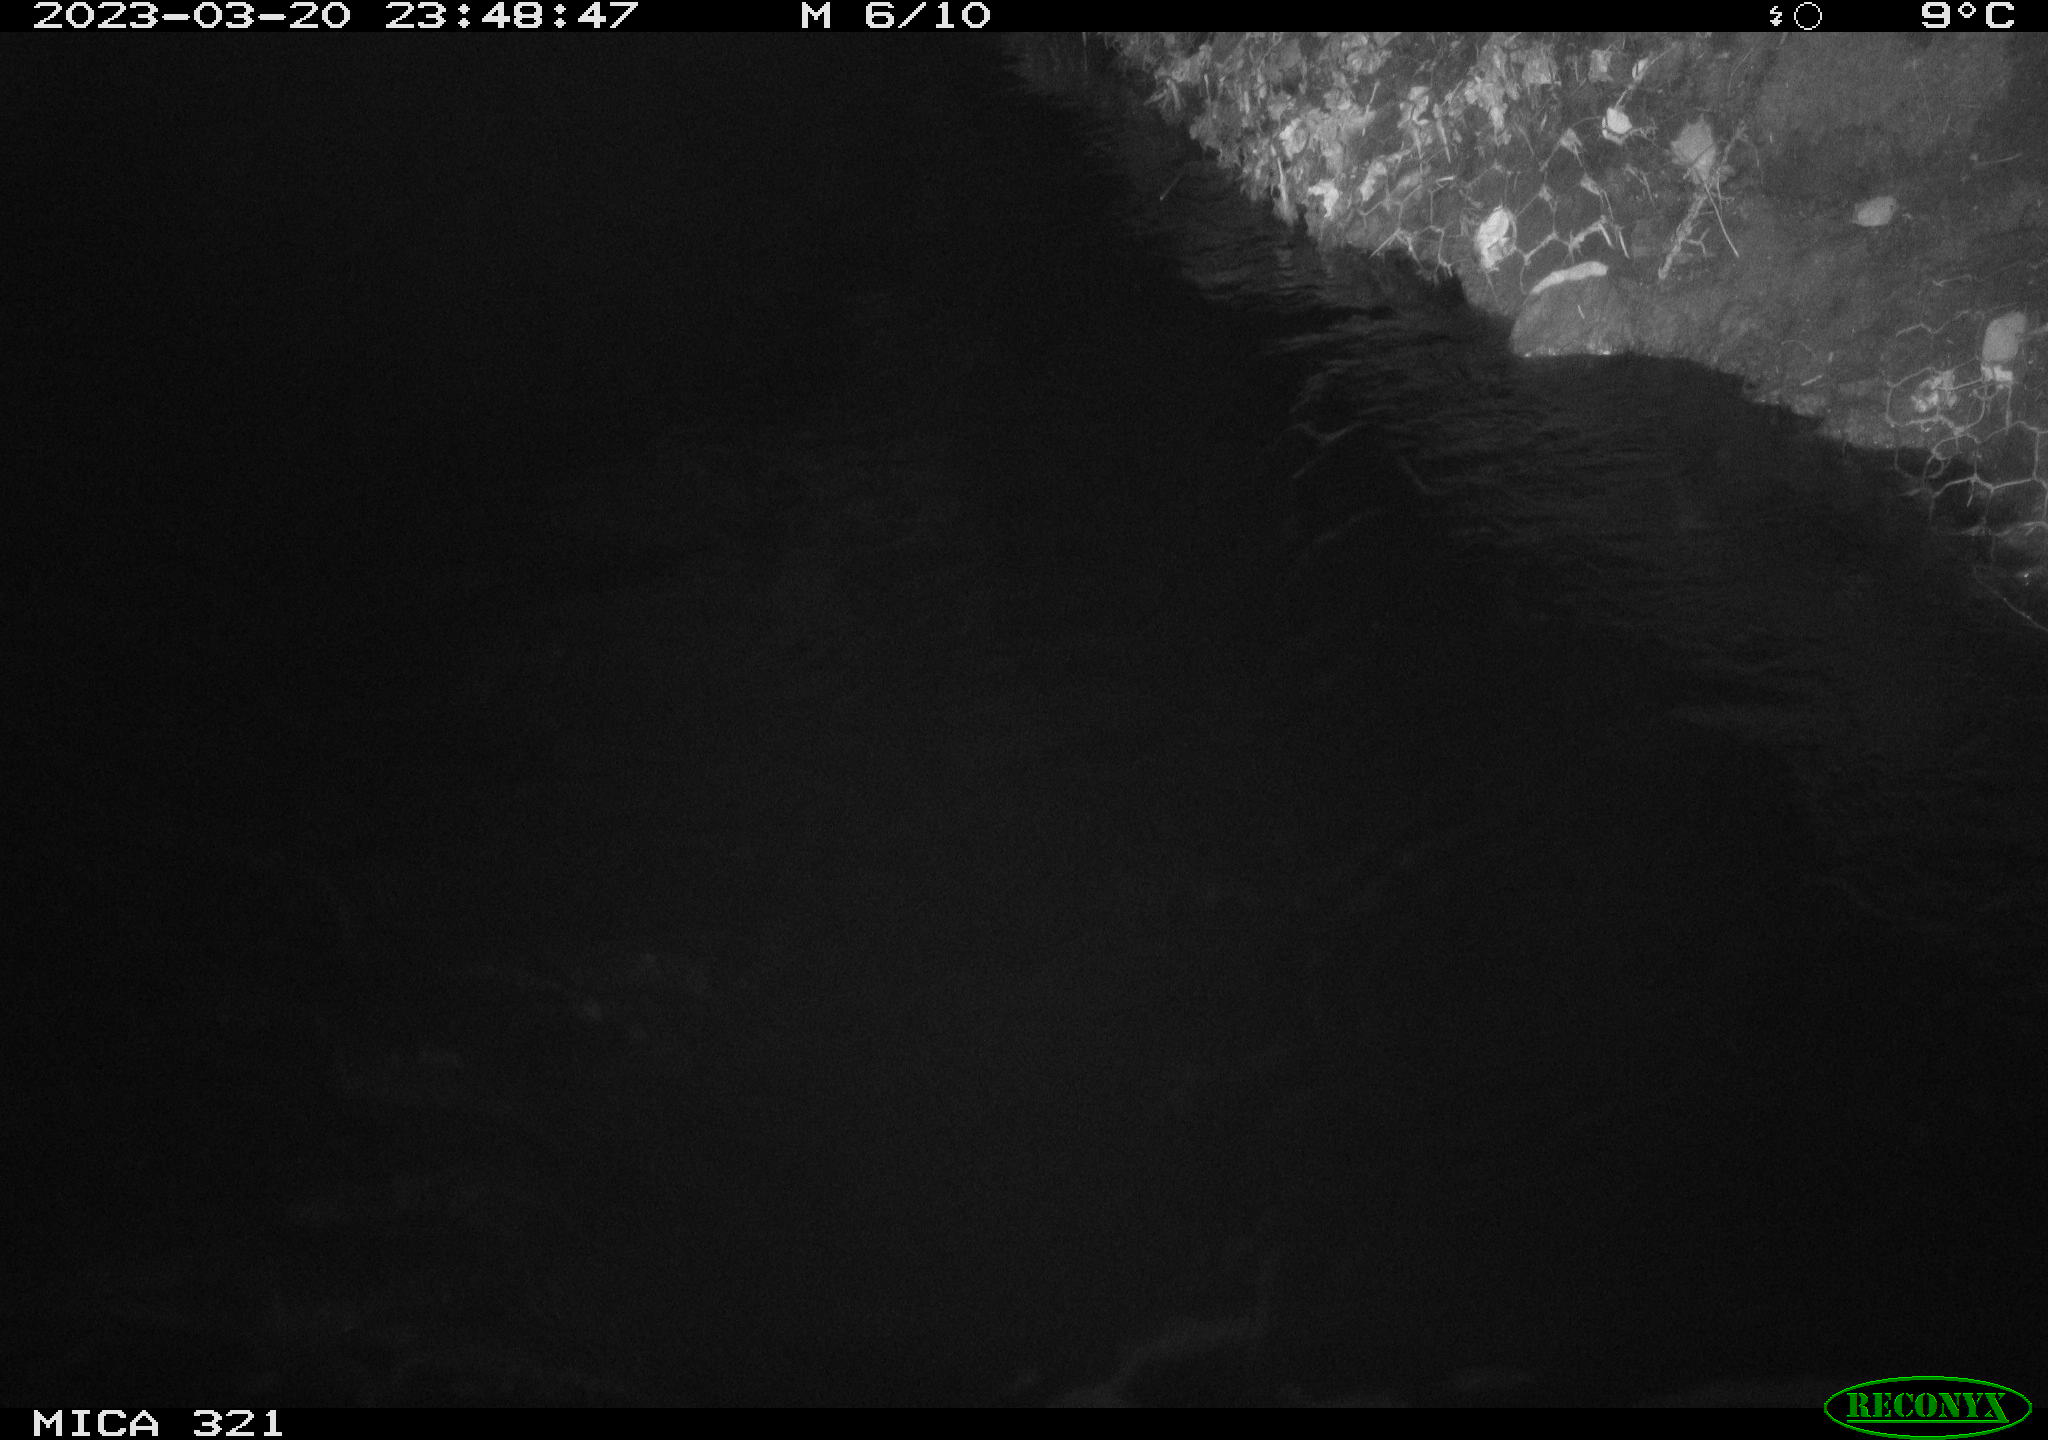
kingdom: Animalia
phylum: Chordata
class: Aves
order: Anseriformes
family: Anatidae
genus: Anas
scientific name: Anas
